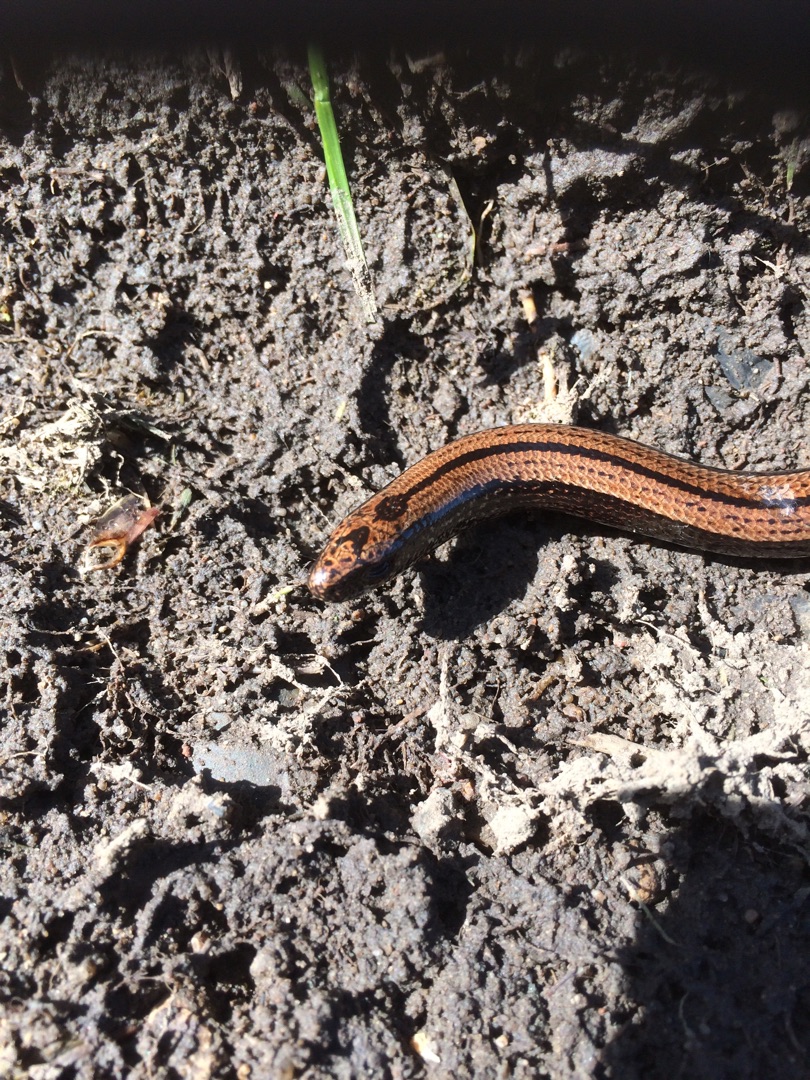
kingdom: Animalia
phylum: Chordata
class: Squamata
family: Anguidae
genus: Anguis
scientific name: Anguis fragilis
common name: Stålorm
